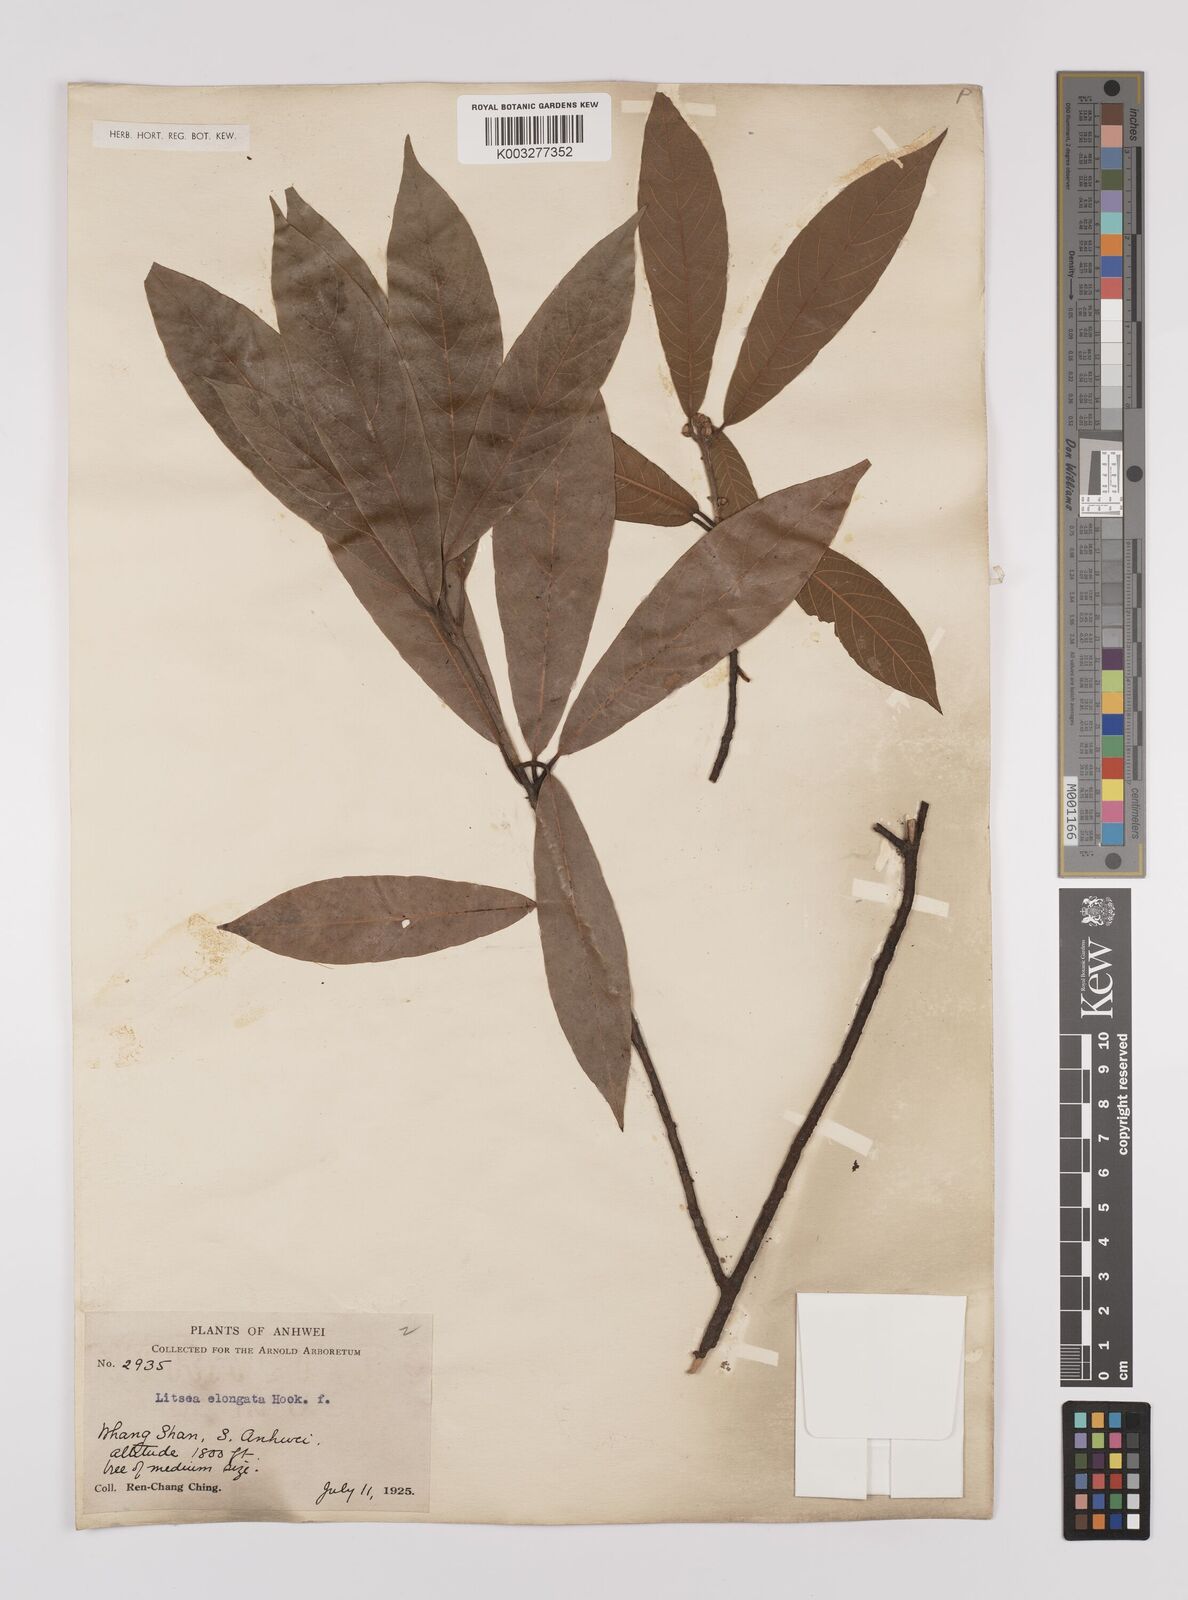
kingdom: Plantae
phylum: Tracheophyta
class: Magnoliopsida
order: Laurales
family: Lauraceae
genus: Litsea
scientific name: Litsea elongata
